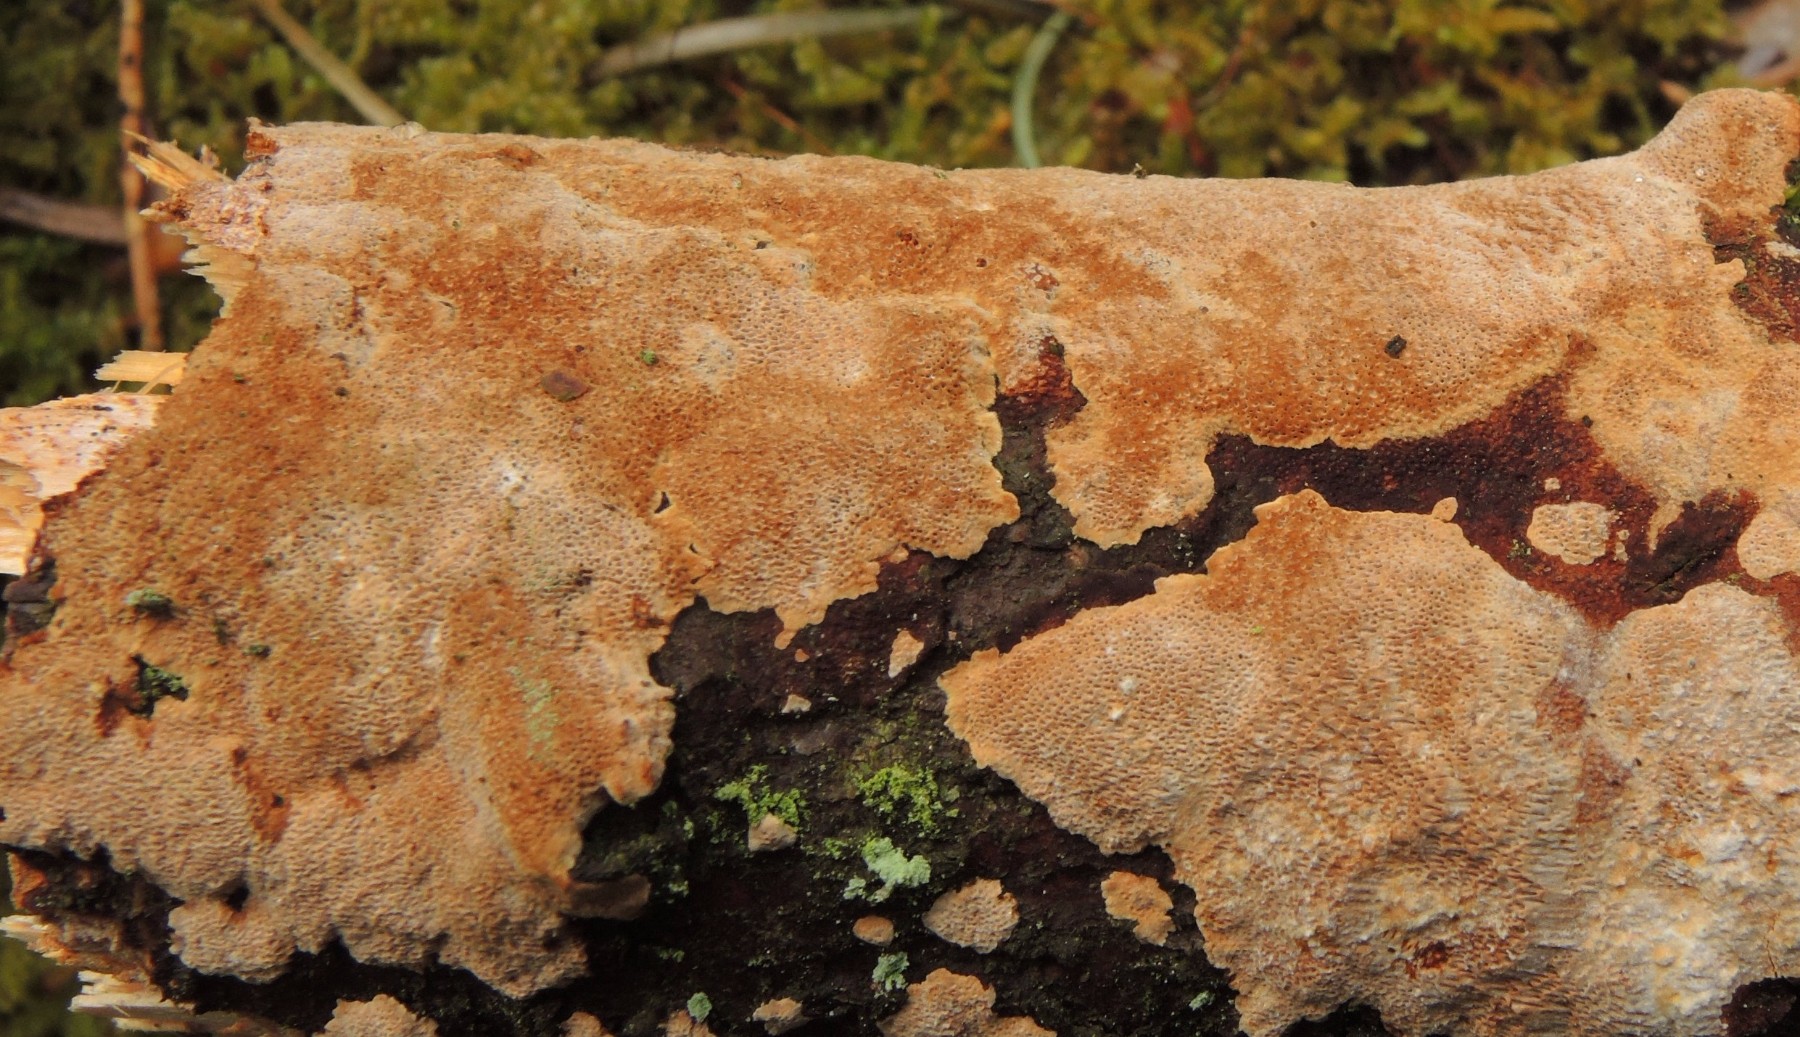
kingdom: Fungi
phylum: Basidiomycota
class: Agaricomycetes
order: Hymenochaetales
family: Hymenochaetaceae
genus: Fuscoporia
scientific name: Fuscoporia ferrea
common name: skorpe-ildporesvamp
